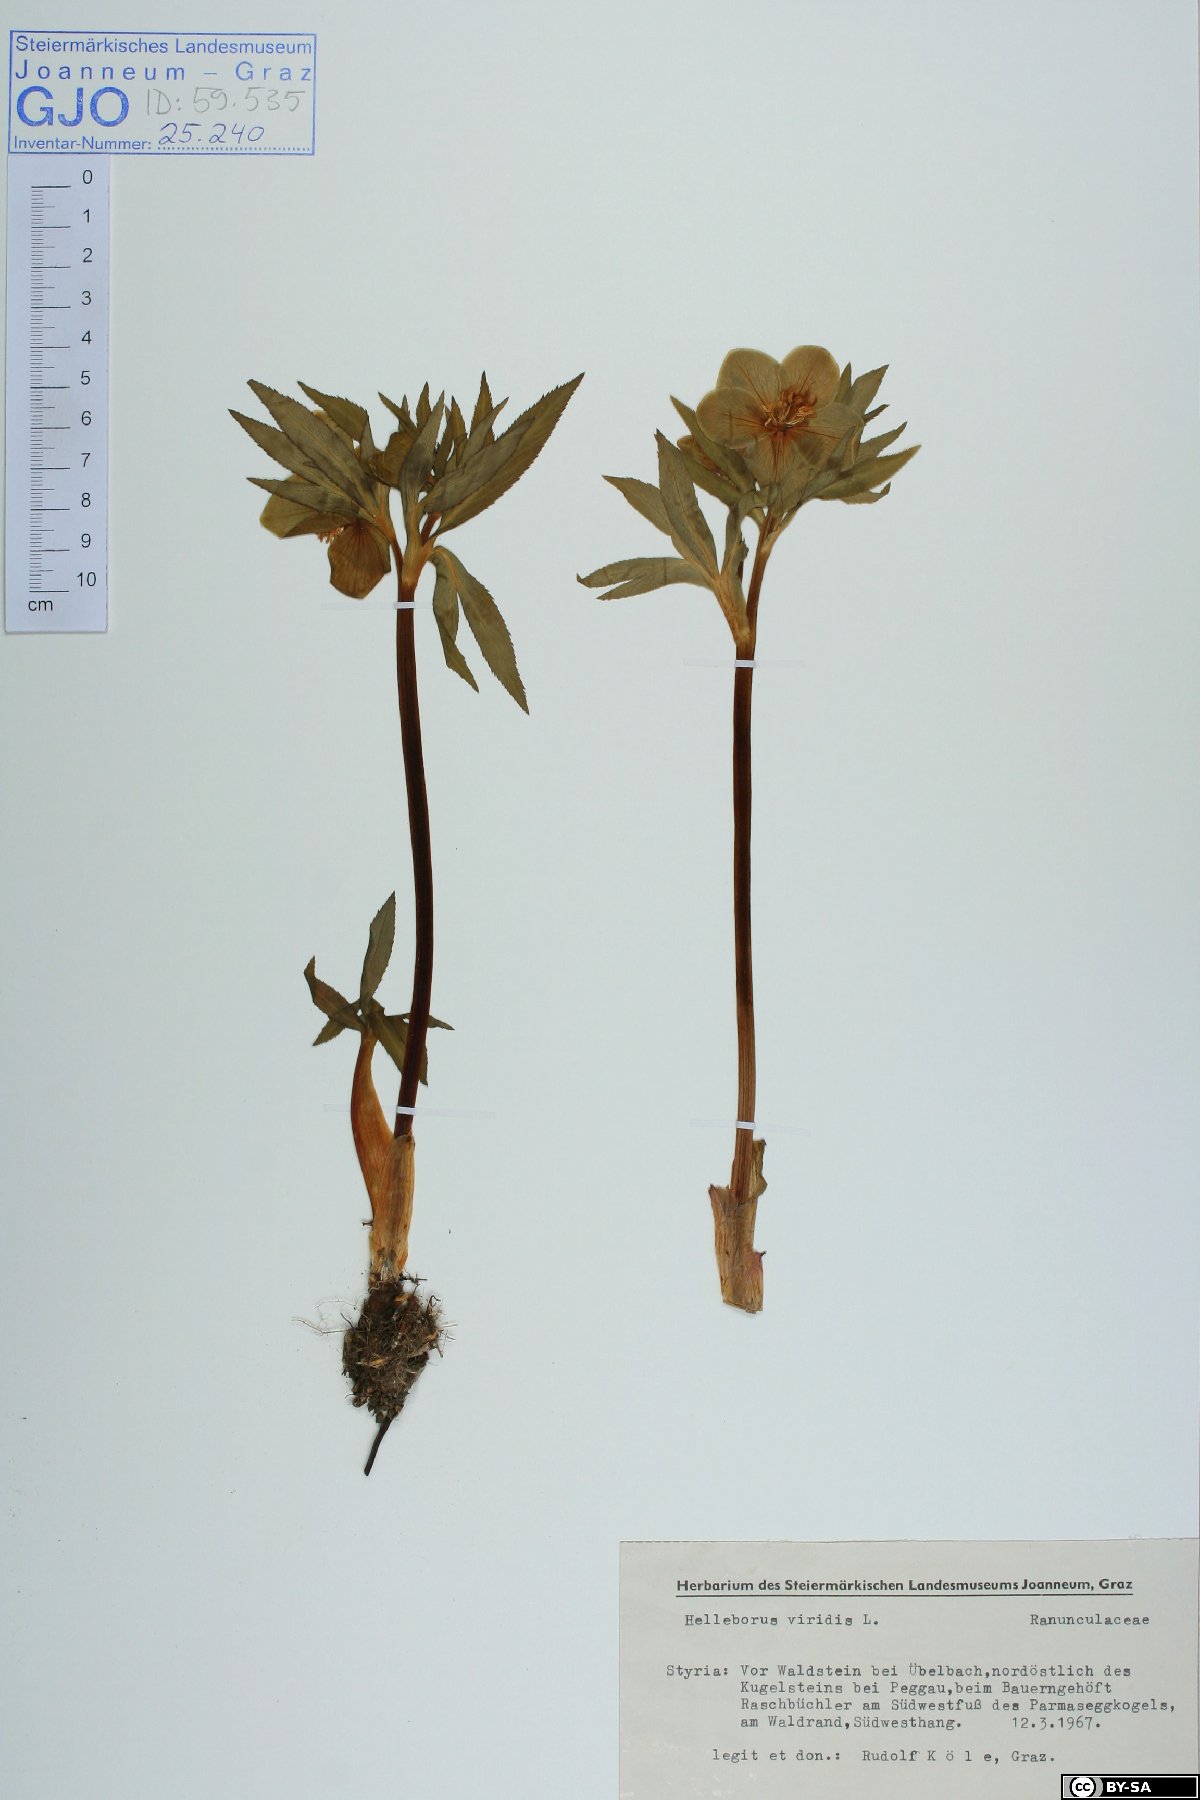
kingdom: Plantae
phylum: Tracheophyta
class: Magnoliopsida
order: Ranunculales
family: Ranunculaceae
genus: Helleborus
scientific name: Helleborus viridis
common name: Green hellebore
